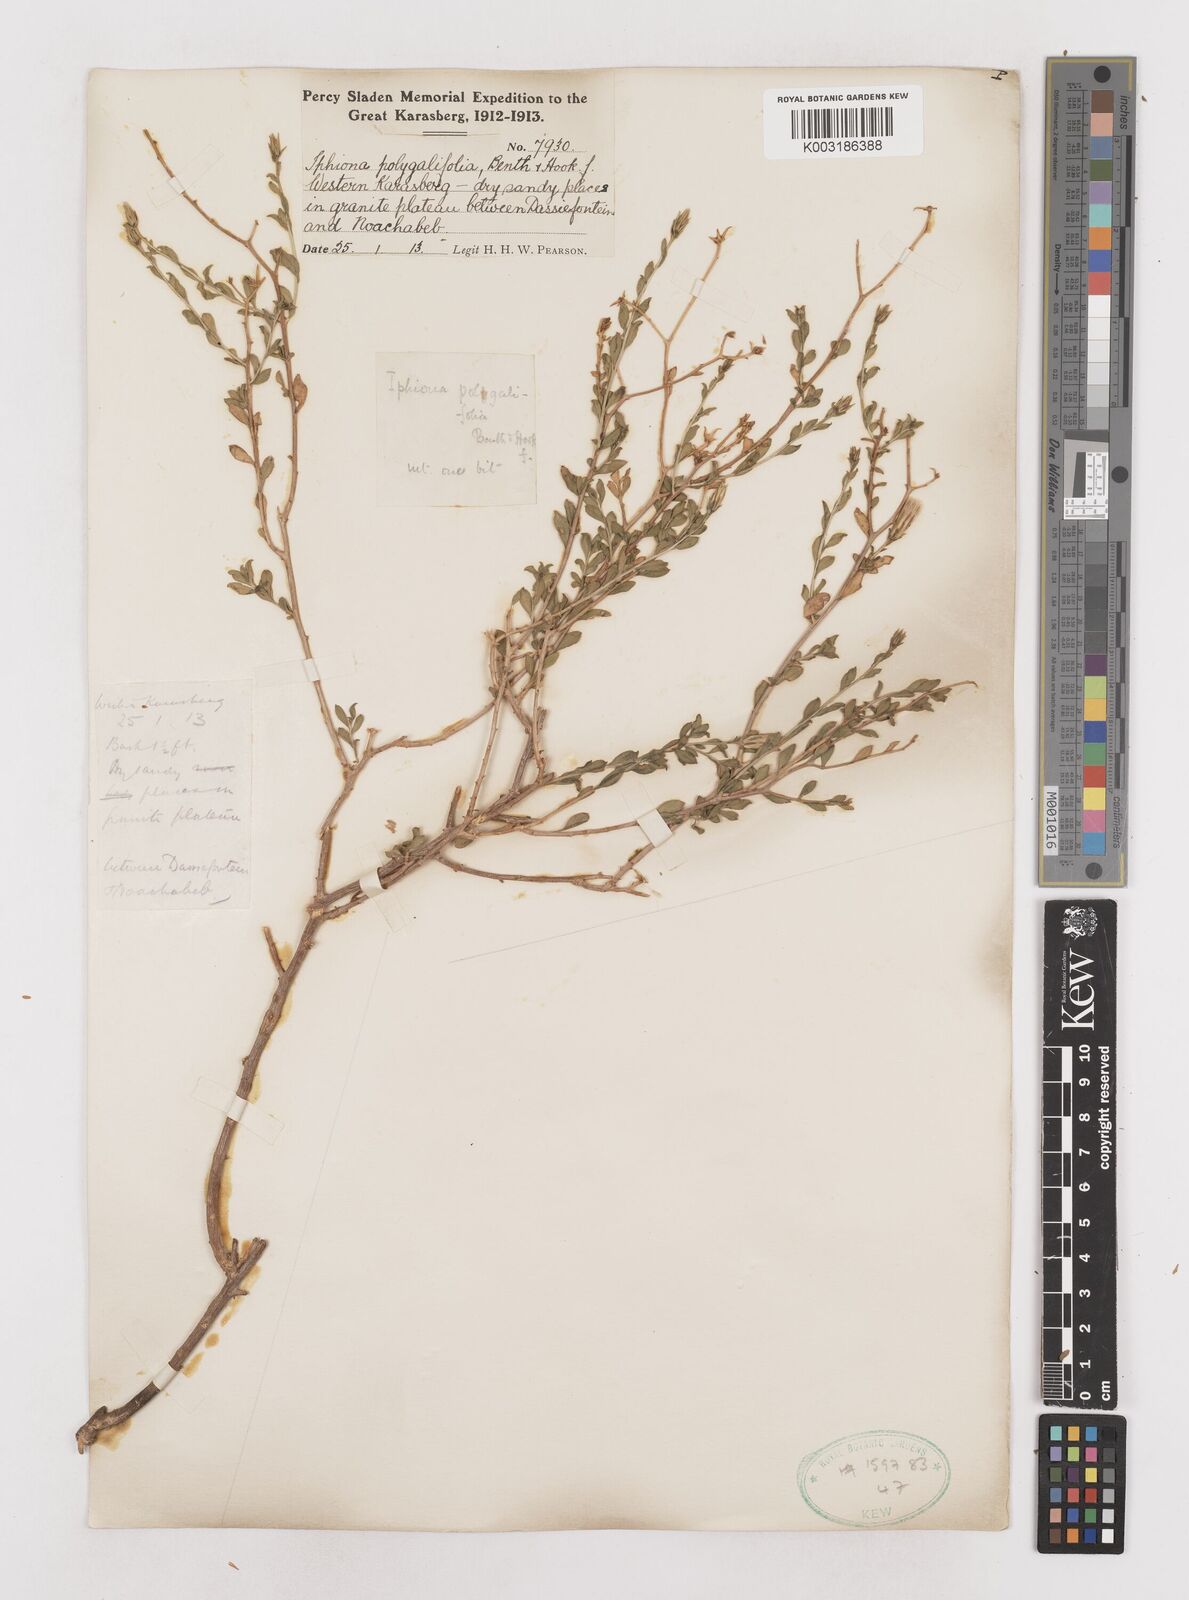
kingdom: Plantae
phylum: Tracheophyta
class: Magnoliopsida
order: Asterales
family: Asteraceae
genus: Pegolettia
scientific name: Pegolettia retrofracta
